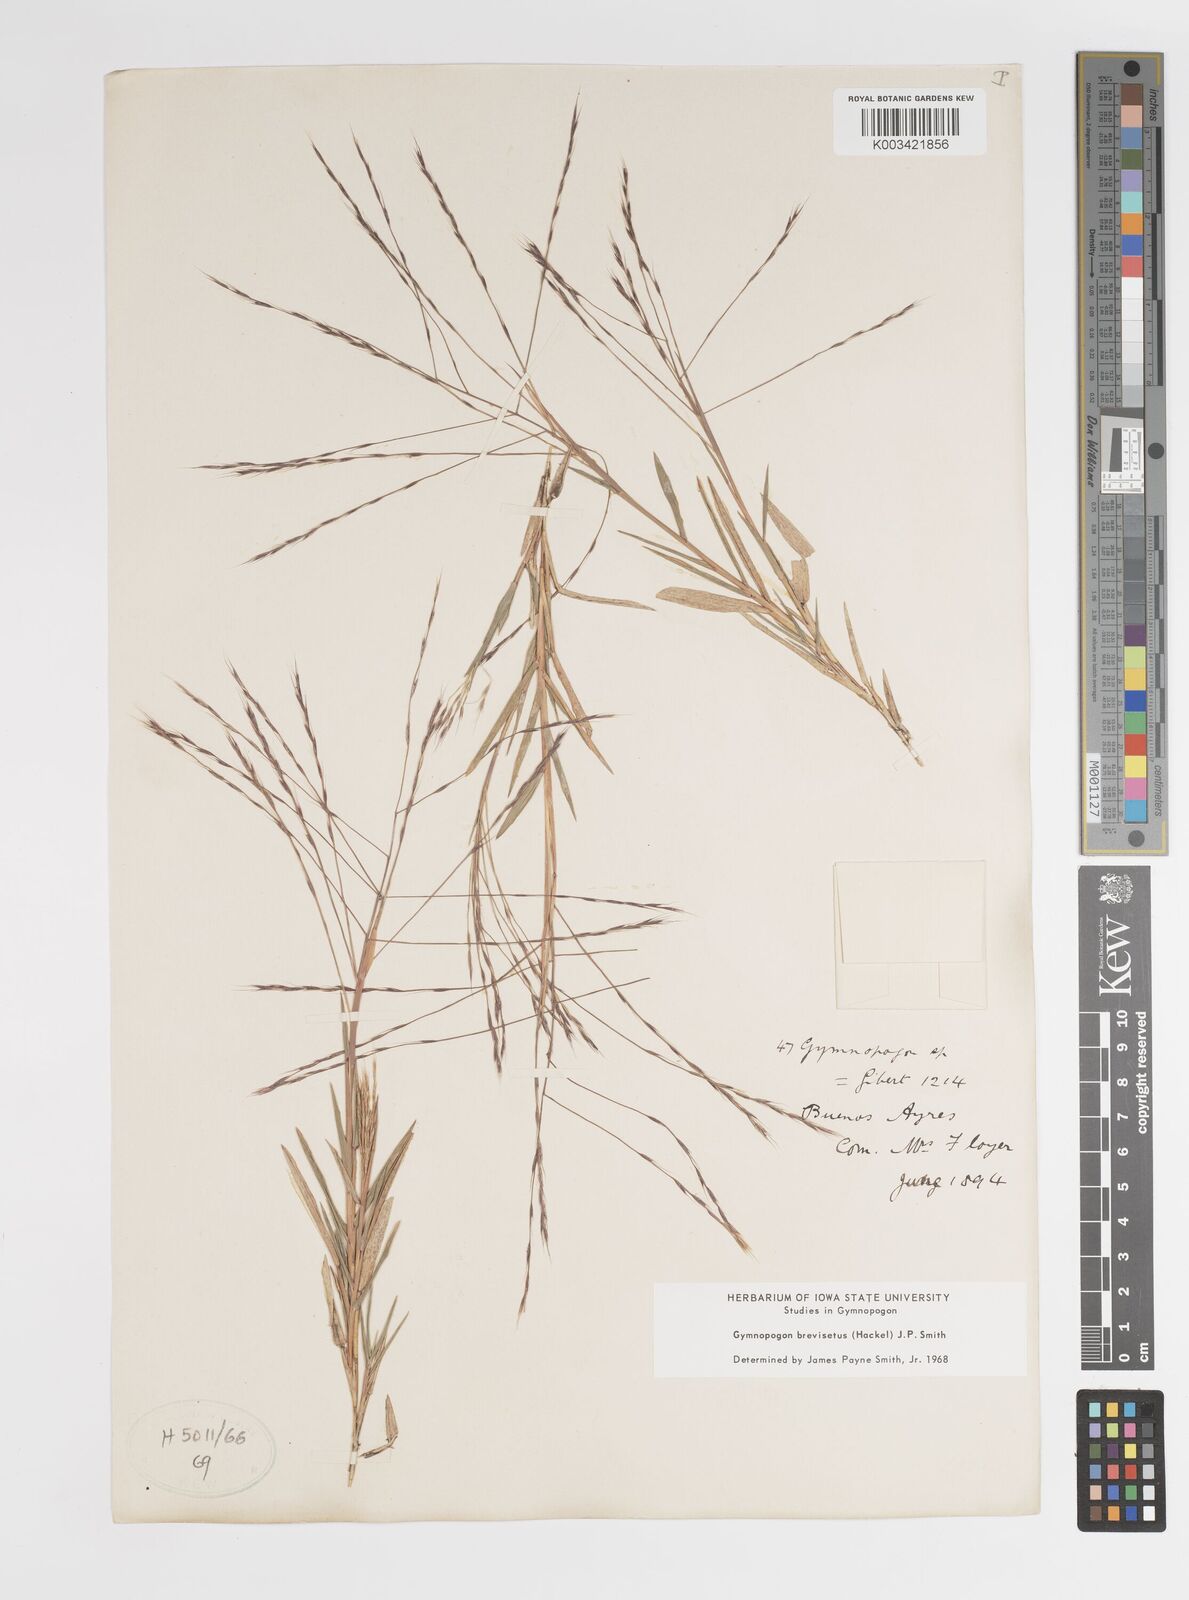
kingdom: Plantae
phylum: Tracheophyta
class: Liliopsida
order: Poales
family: Poaceae
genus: Gymnopogon
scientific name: Gymnopogon grandiflorus
